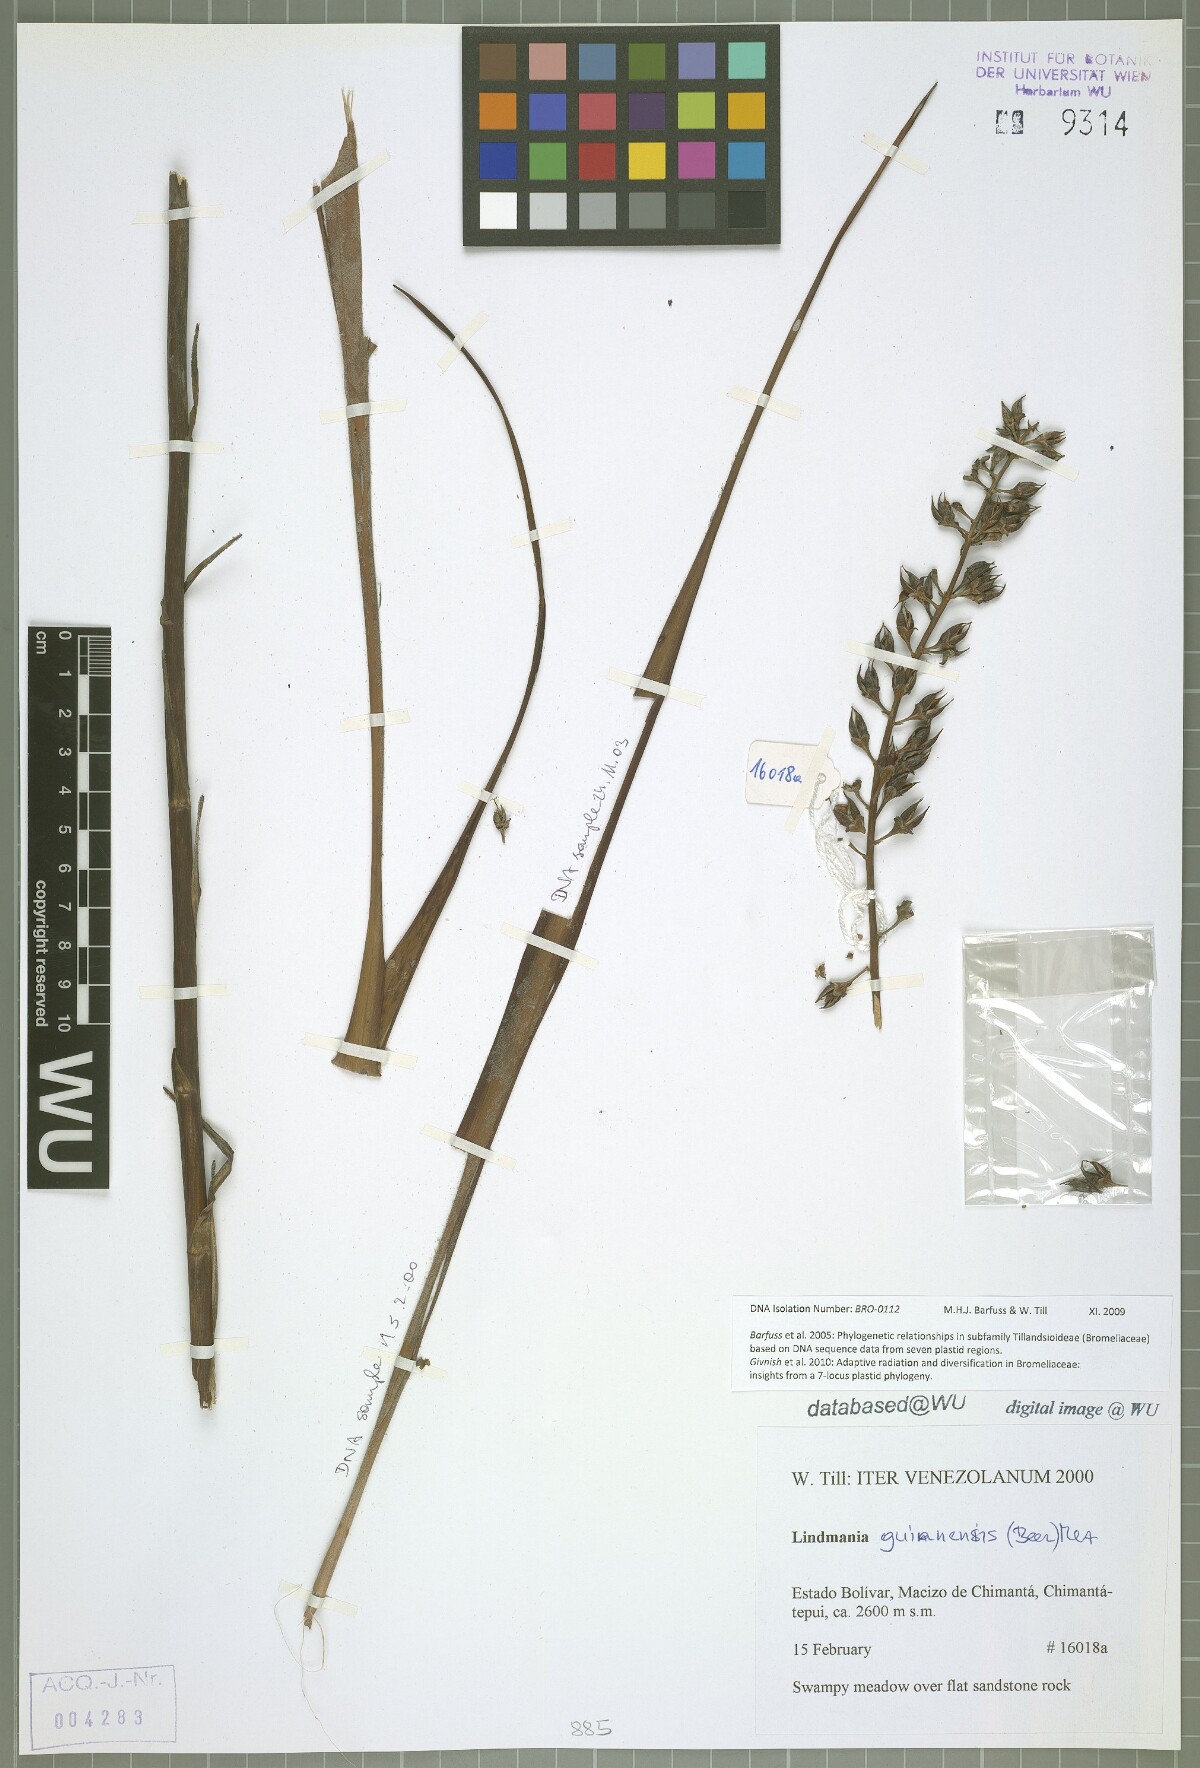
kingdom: Plantae
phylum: Tracheophyta
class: Liliopsida
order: Poales
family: Bromeliaceae
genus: Lindmania
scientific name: Lindmania guianensis
